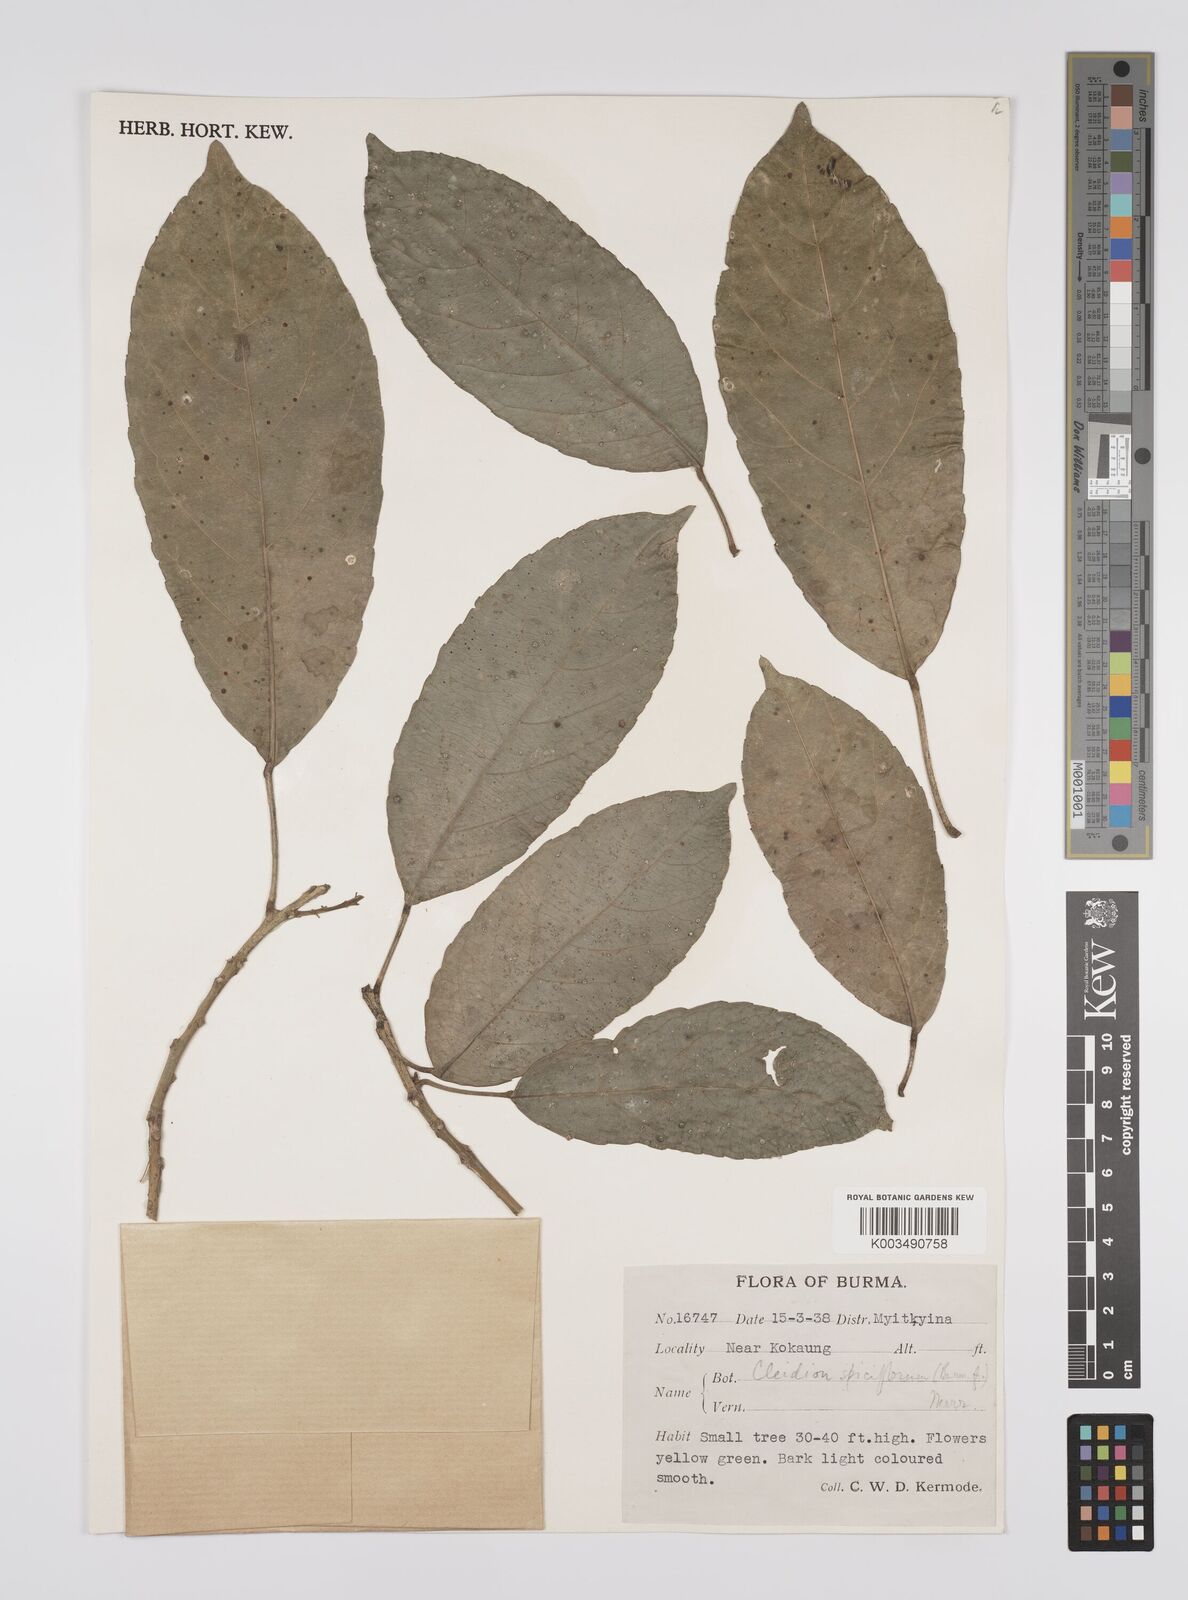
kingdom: Plantae
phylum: Tracheophyta
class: Magnoliopsida
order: Malpighiales
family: Euphorbiaceae
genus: Acalypha
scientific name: Acalypha spiciflora
